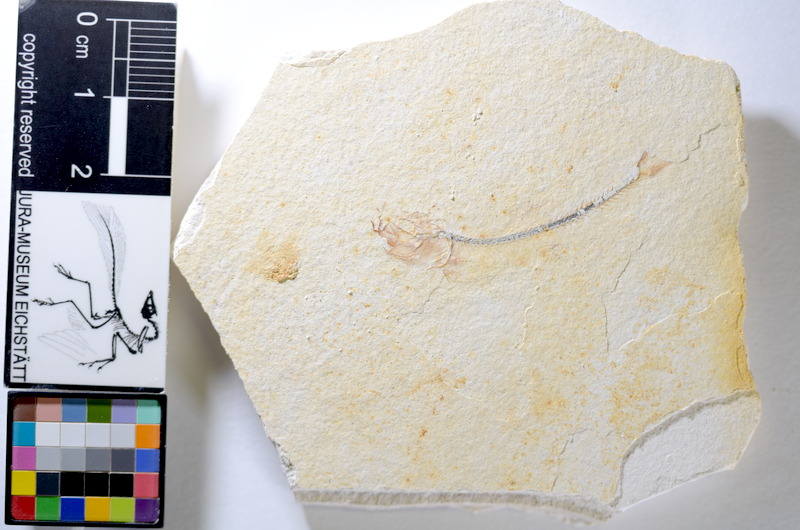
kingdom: Animalia
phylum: Chordata
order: Salmoniformes
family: Orthogonikleithridae
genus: Orthogonikleithrus
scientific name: Orthogonikleithrus hoelli
